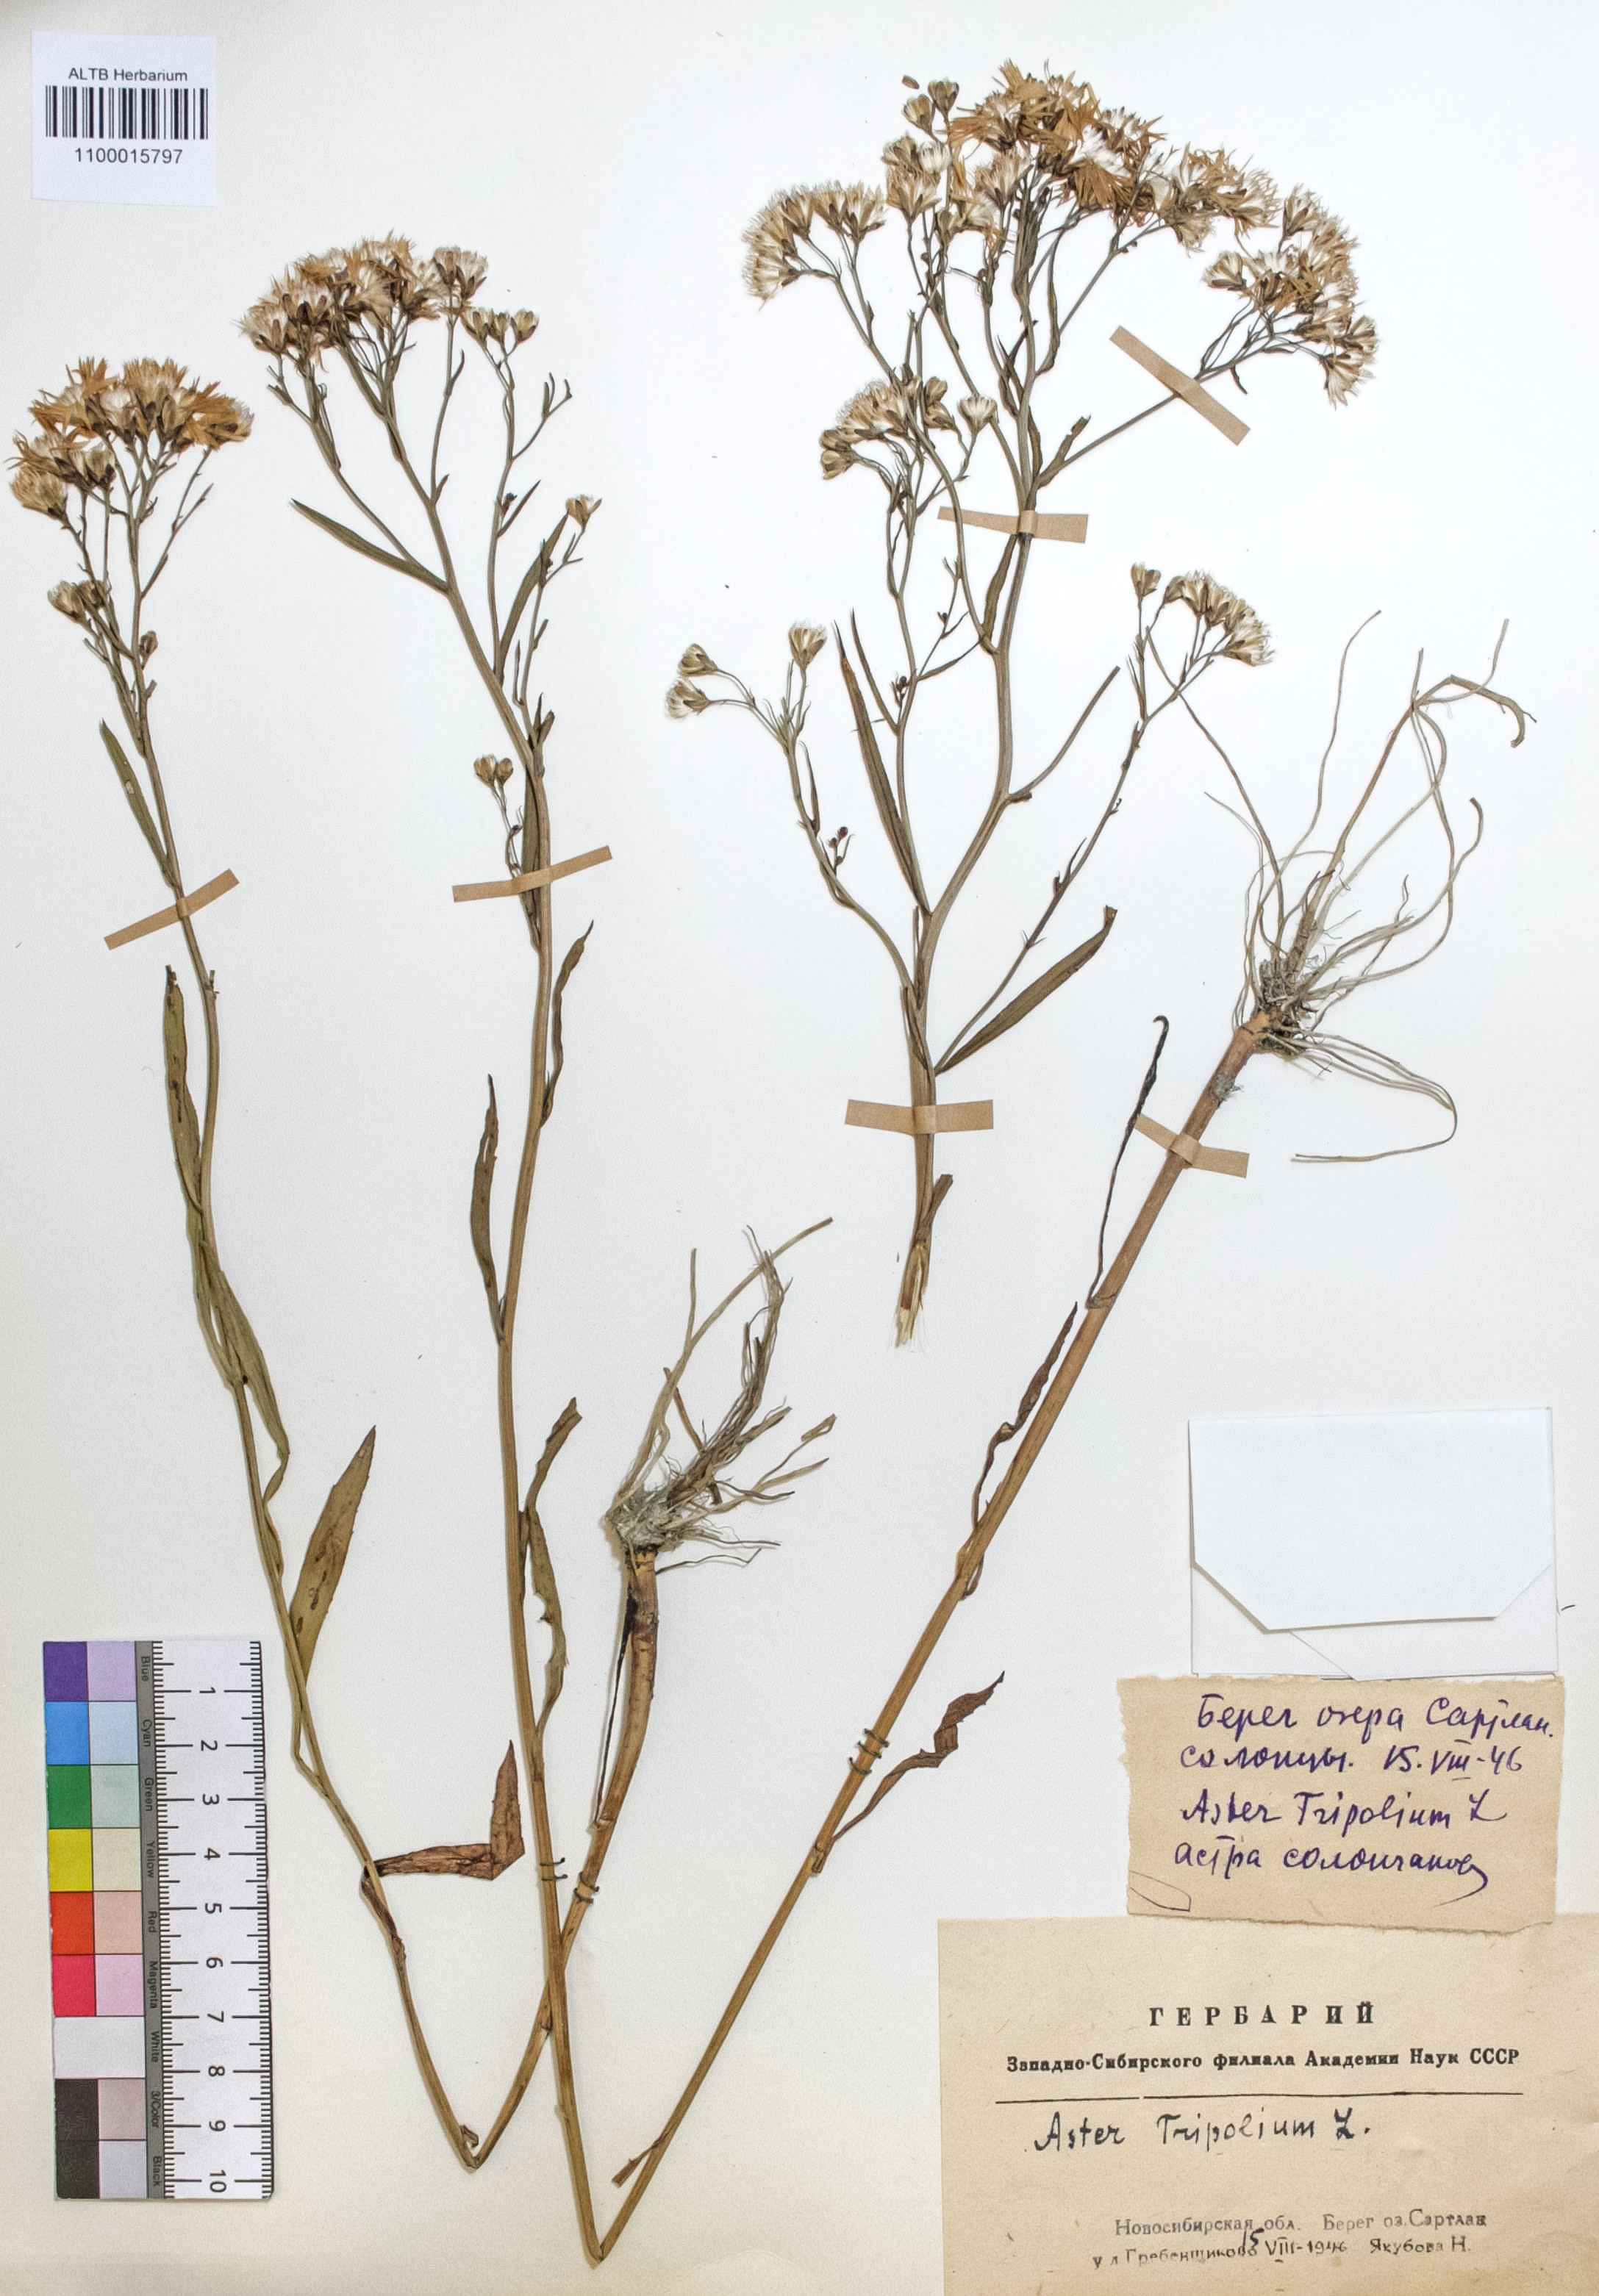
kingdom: Plantae
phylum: Tracheophyta
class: Magnoliopsida
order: Asterales
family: Asteraceae
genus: Tripolium
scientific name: Tripolium pannonicum
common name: Sea aster
